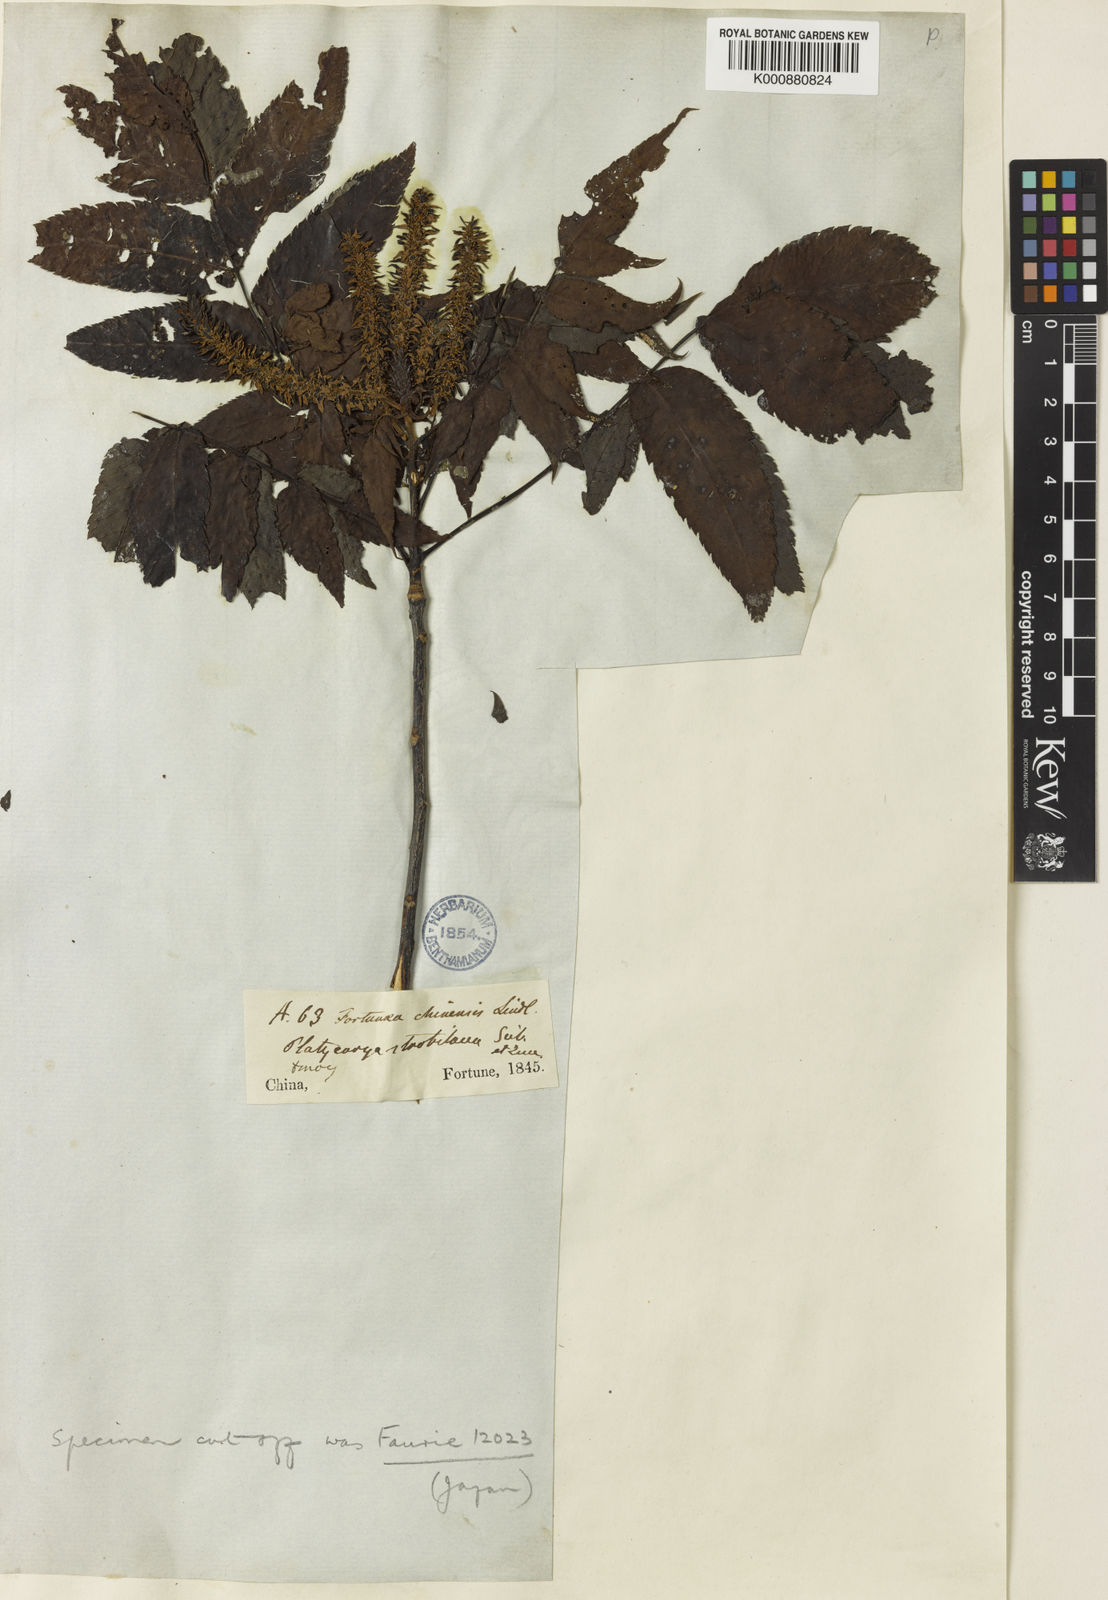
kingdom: Plantae
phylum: Tracheophyta
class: Magnoliopsida
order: Fagales
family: Juglandaceae
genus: Platycarya
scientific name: Platycarya strobilacea
